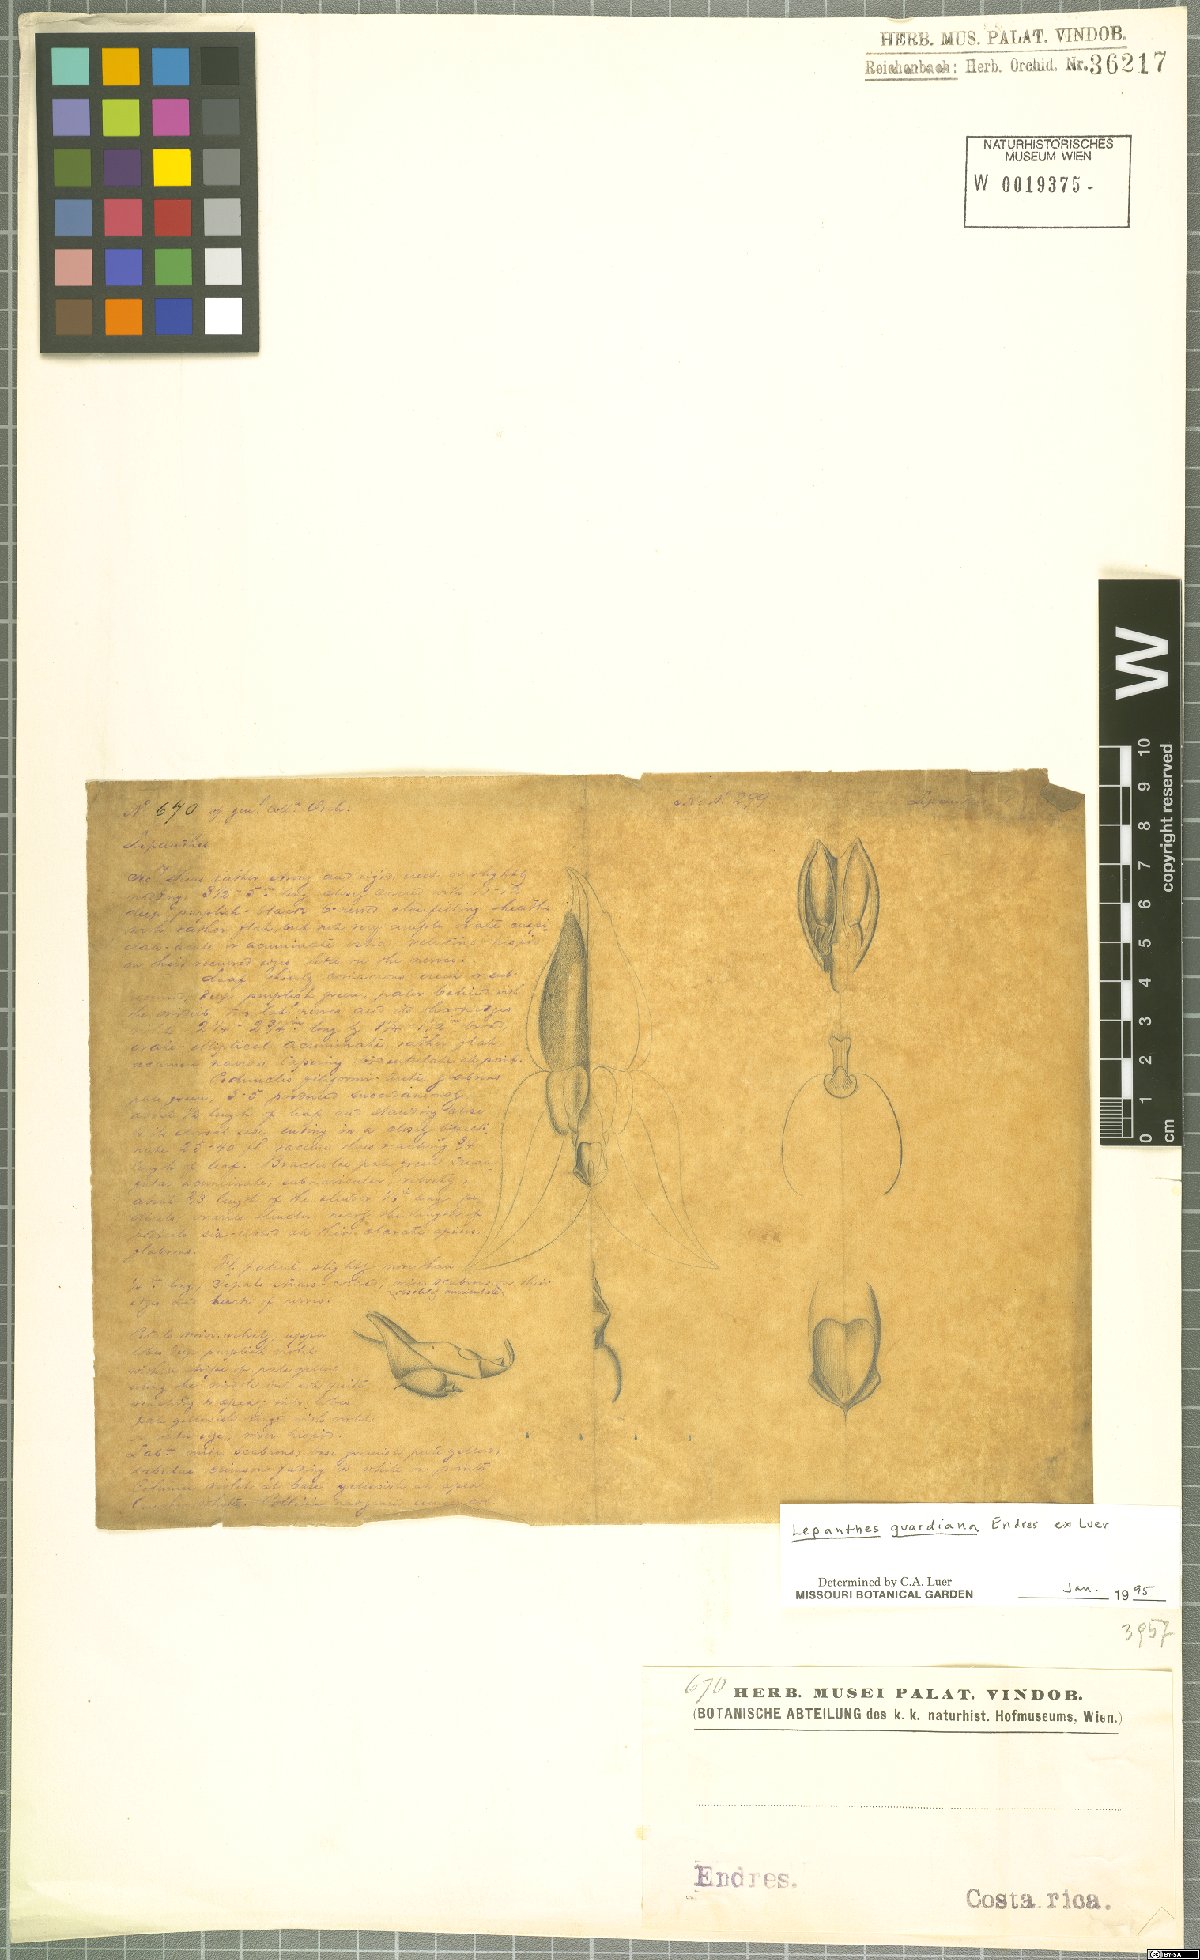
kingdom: Plantae
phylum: Tracheophyta
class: Liliopsida
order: Asparagales
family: Orchidaceae
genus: Lepanthes
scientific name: Lepanthes guardiana
